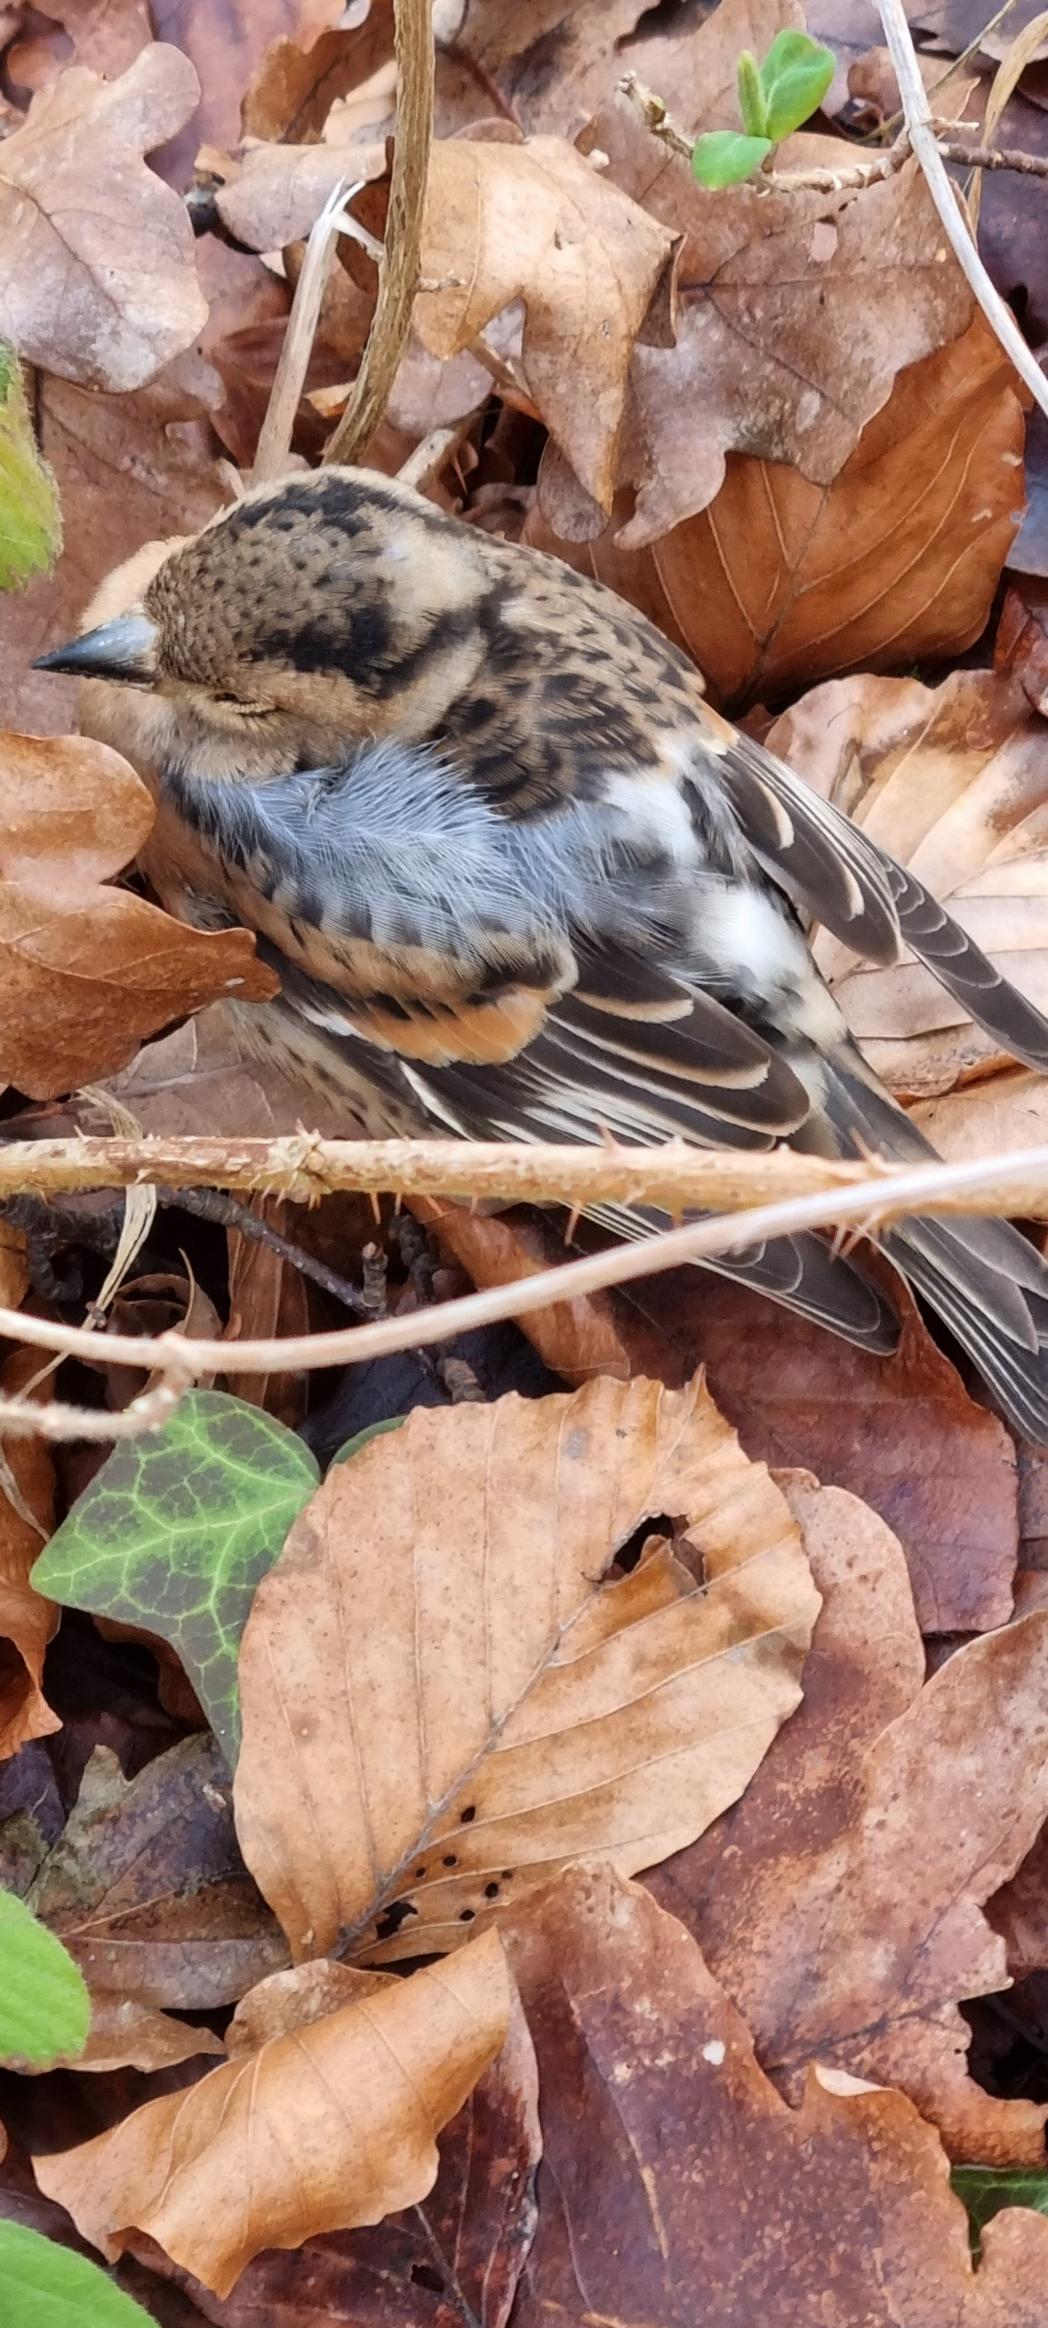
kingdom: Animalia
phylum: Chordata
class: Aves
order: Passeriformes
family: Fringillidae
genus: Fringilla
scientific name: Fringilla montifringilla
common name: Kvækerfinke
